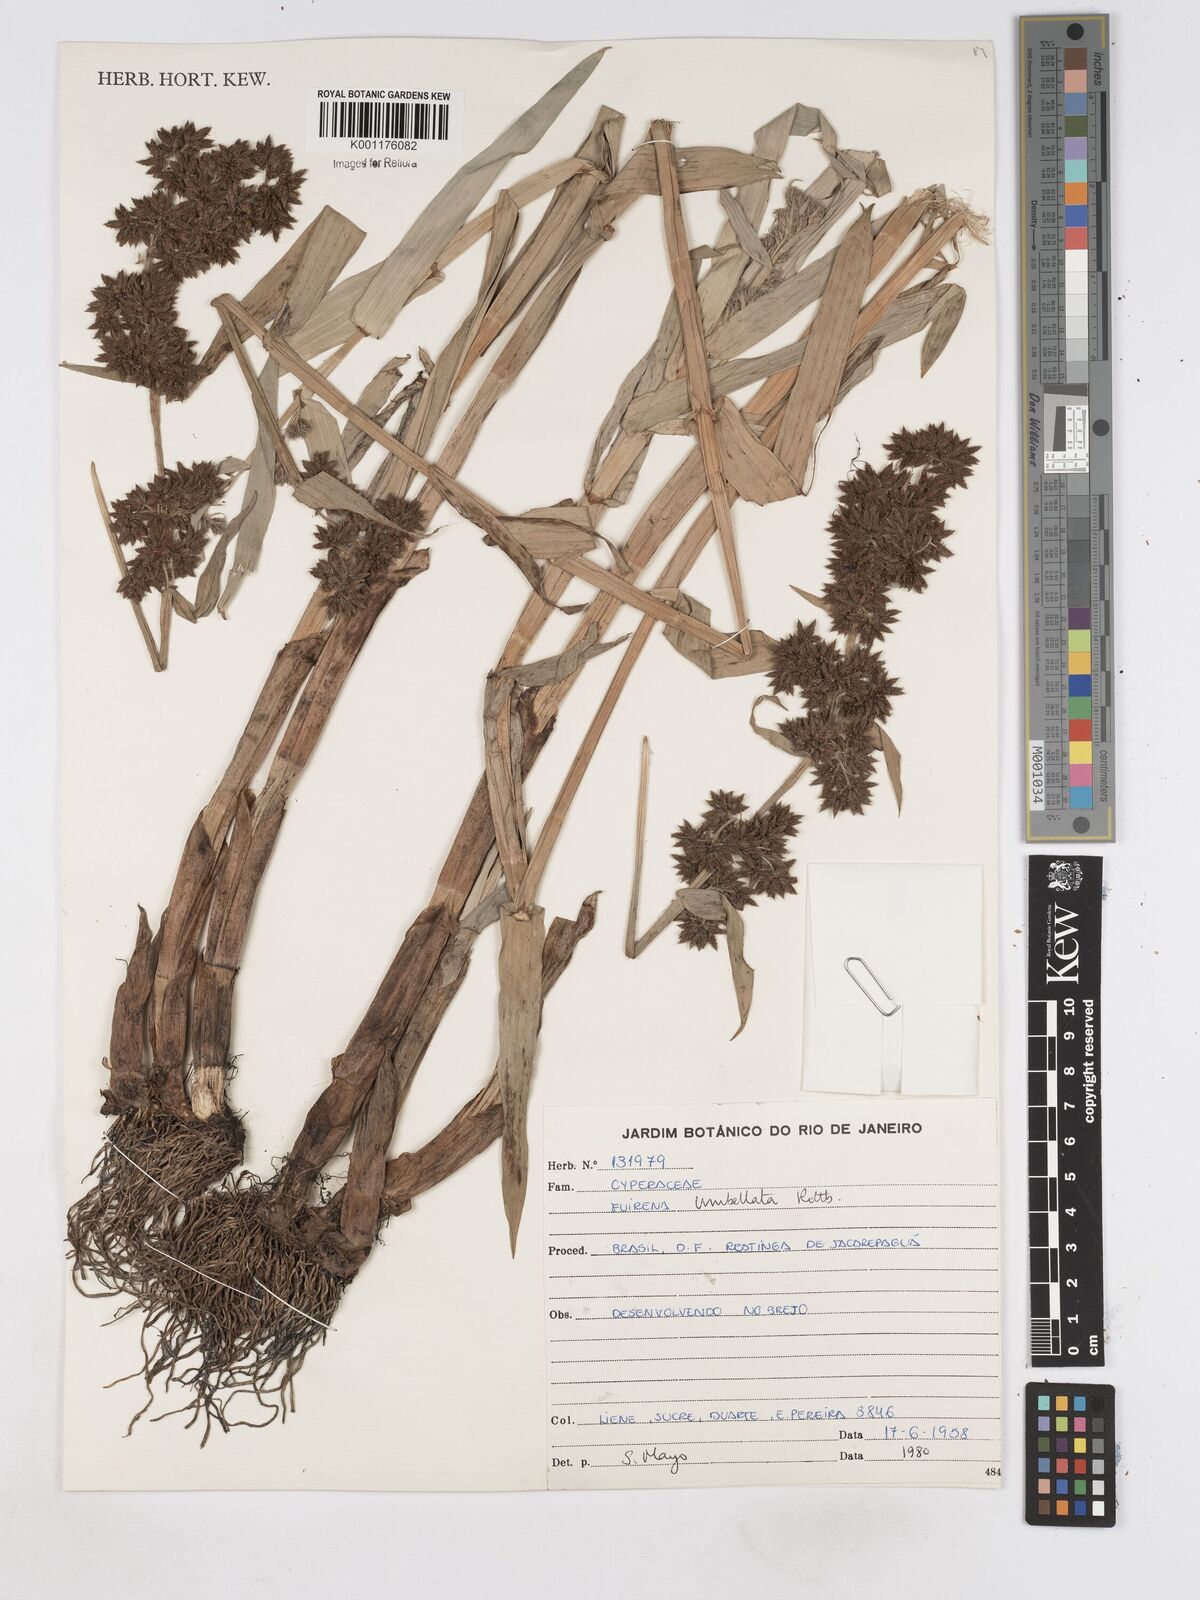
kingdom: Plantae
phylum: Tracheophyta
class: Liliopsida
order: Poales
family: Cyperaceae
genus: Fuirena
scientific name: Fuirena umbellata
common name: Yefen
